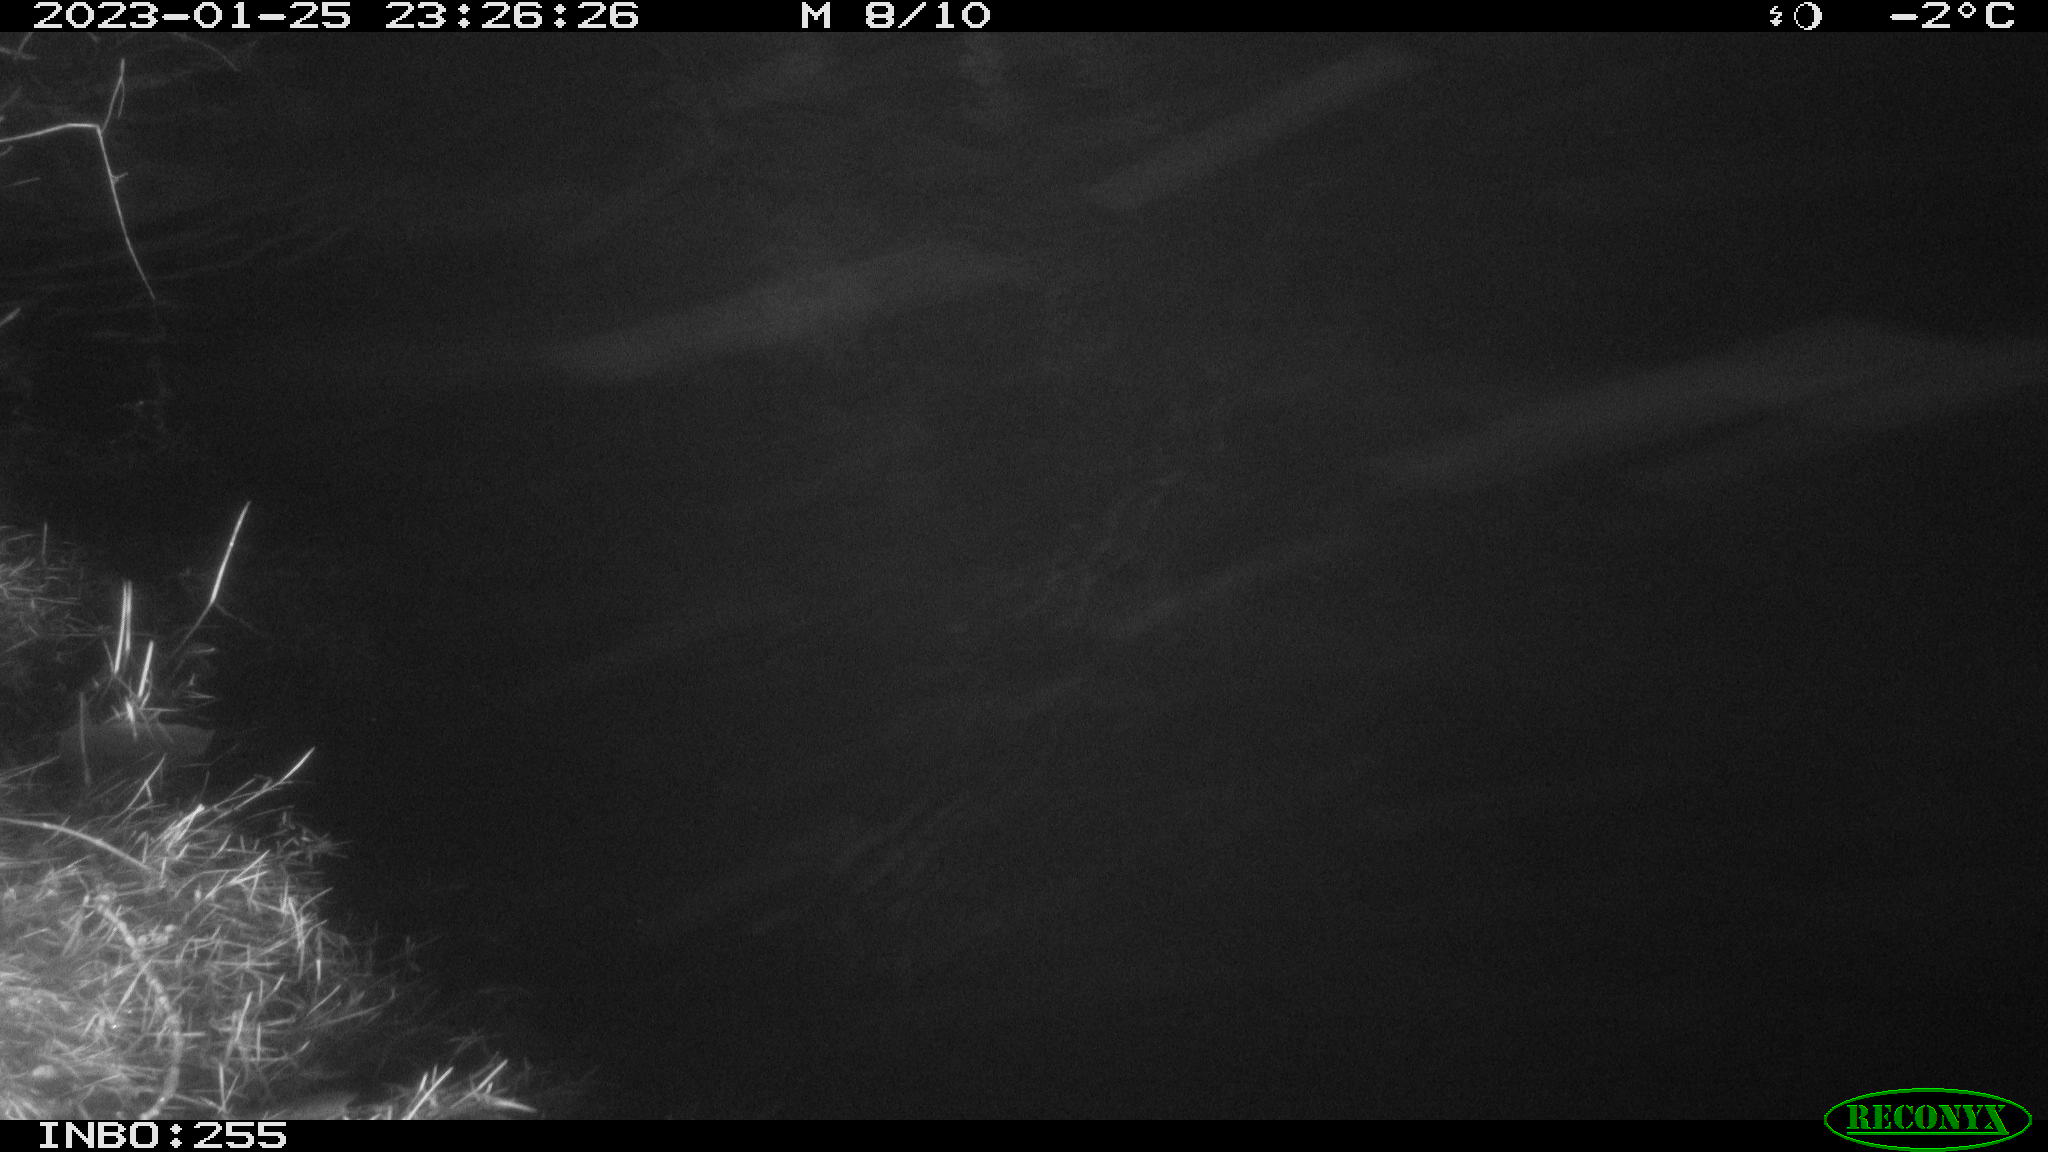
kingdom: Animalia
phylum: Chordata
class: Mammalia
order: Rodentia
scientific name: Rodentia
